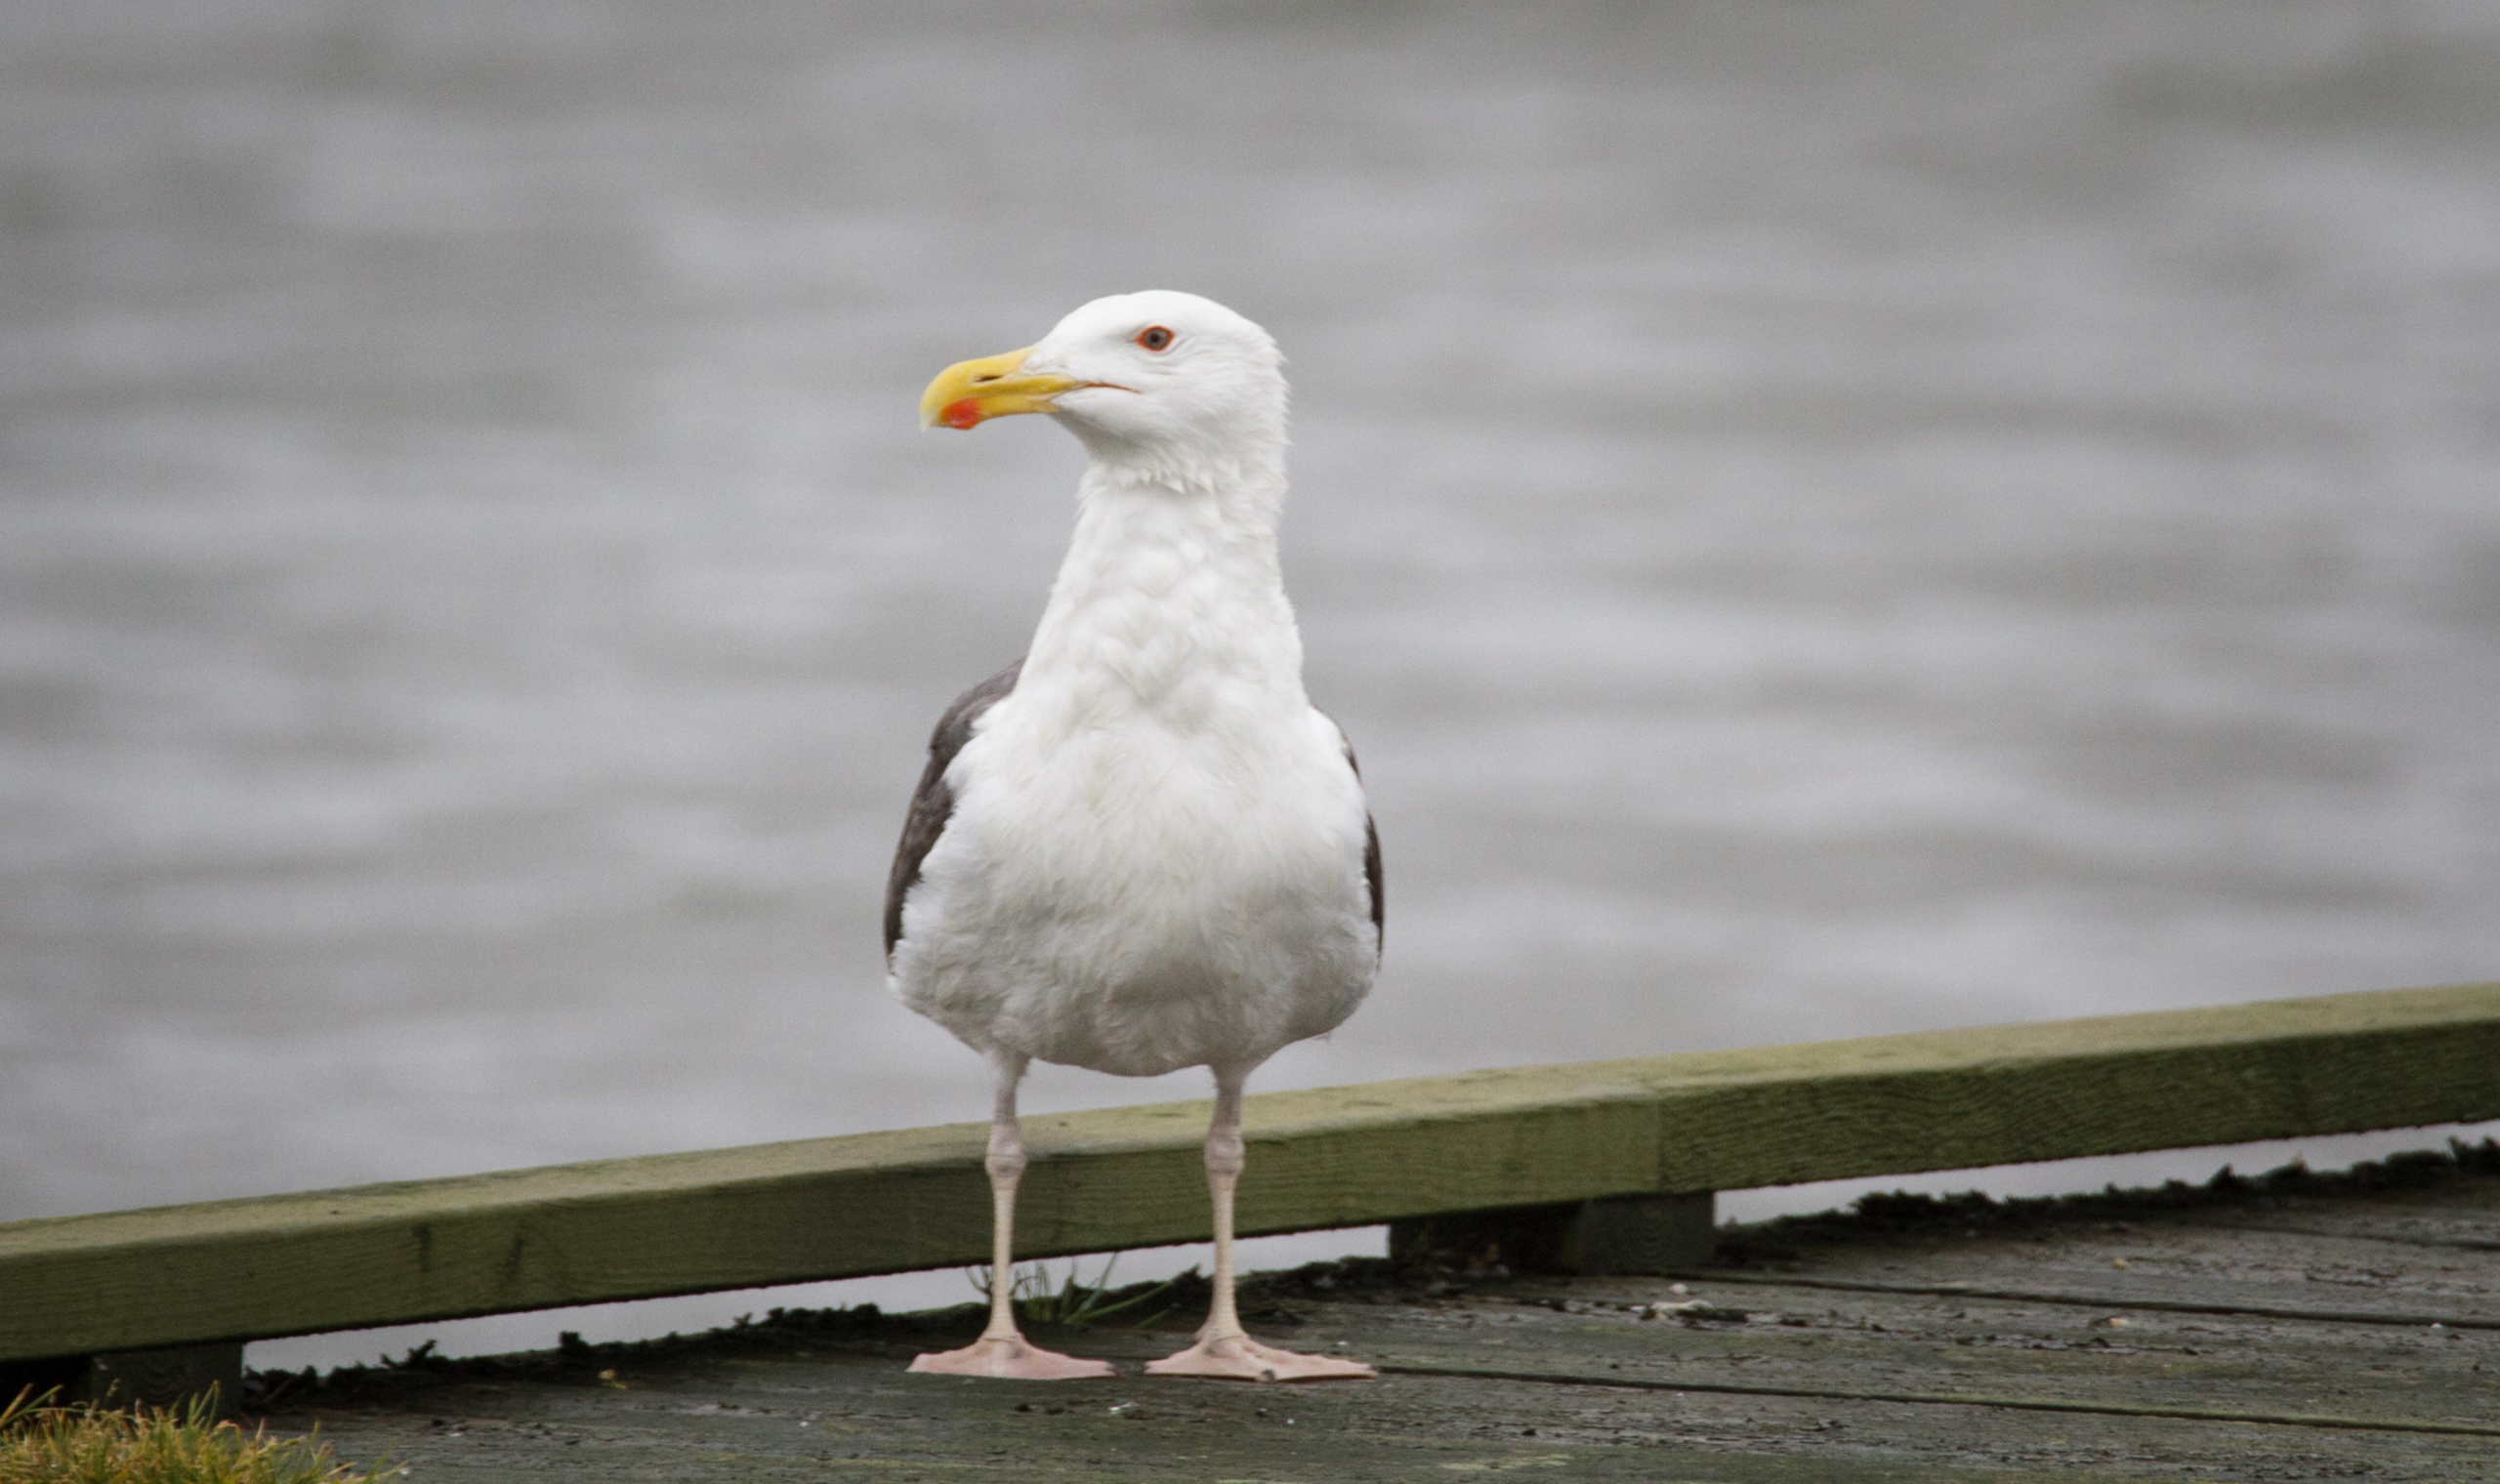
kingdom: Animalia
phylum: Chordata
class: Aves
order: Charadriiformes
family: Laridae
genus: Larus
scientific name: Larus marinus
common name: Svartbag
